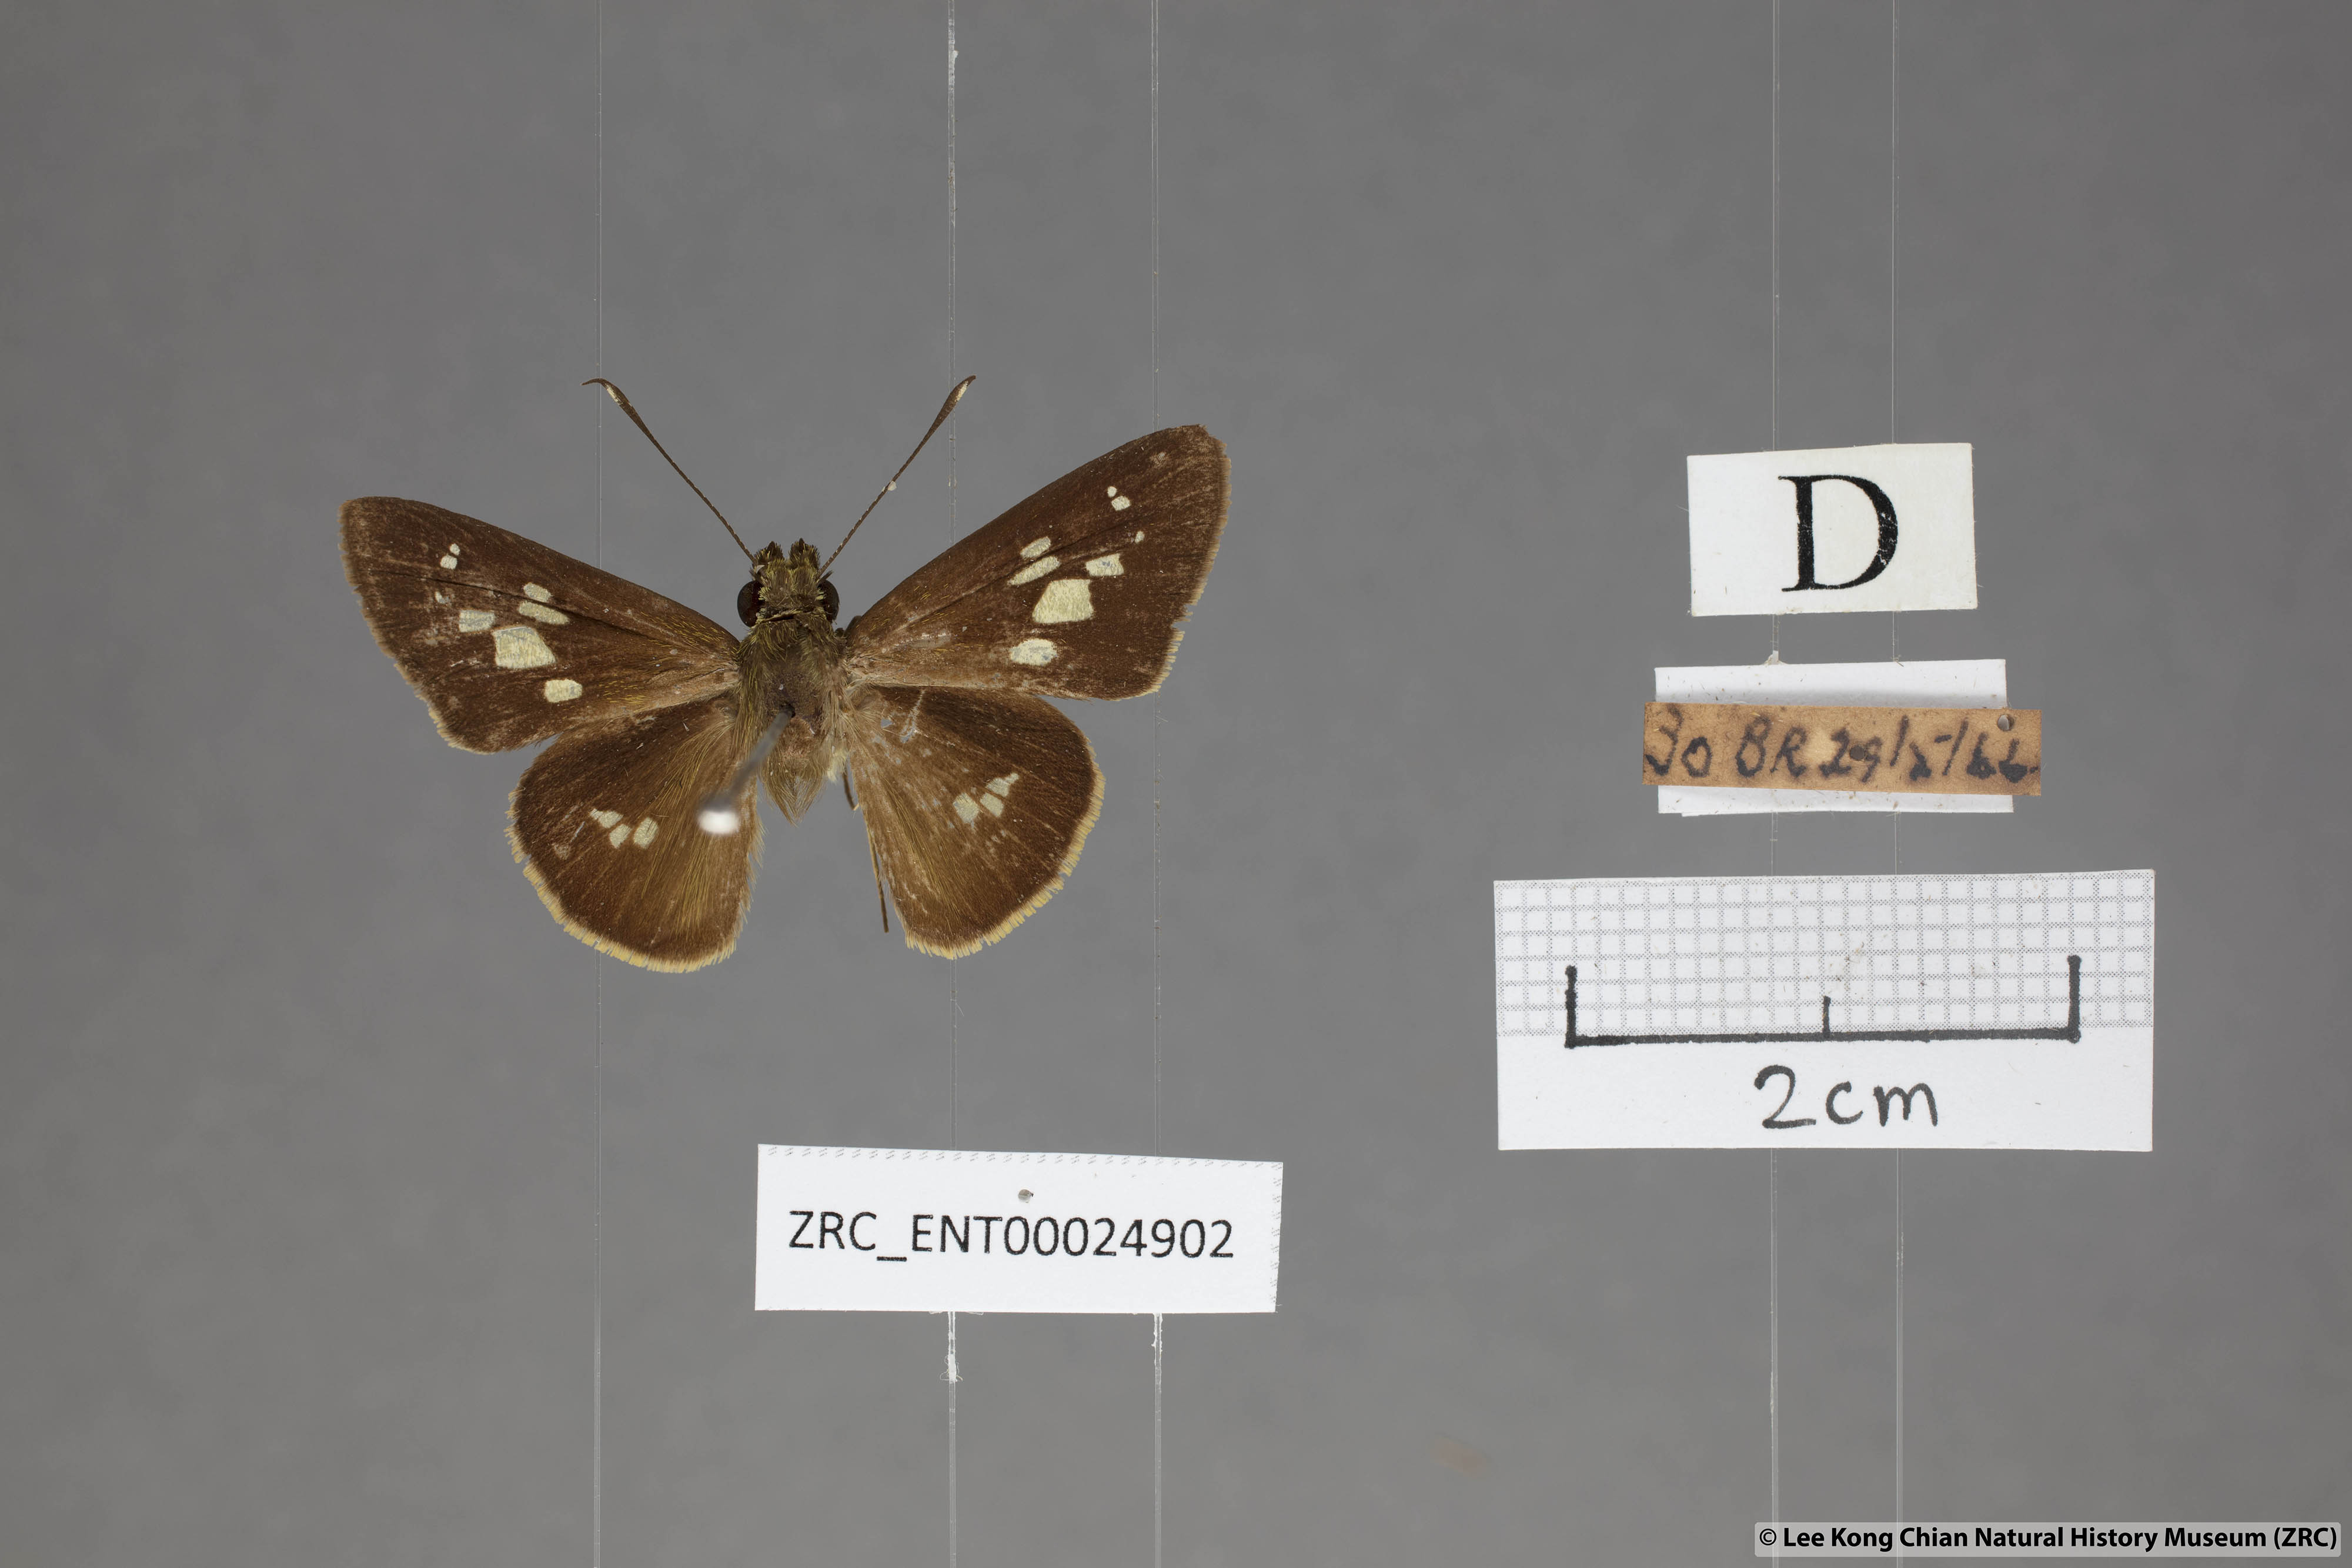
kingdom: Animalia
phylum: Arthropoda
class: Insecta
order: Lepidoptera
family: Hesperiidae
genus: Isma
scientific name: Isma umbrosa
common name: Large long-banded flitter
